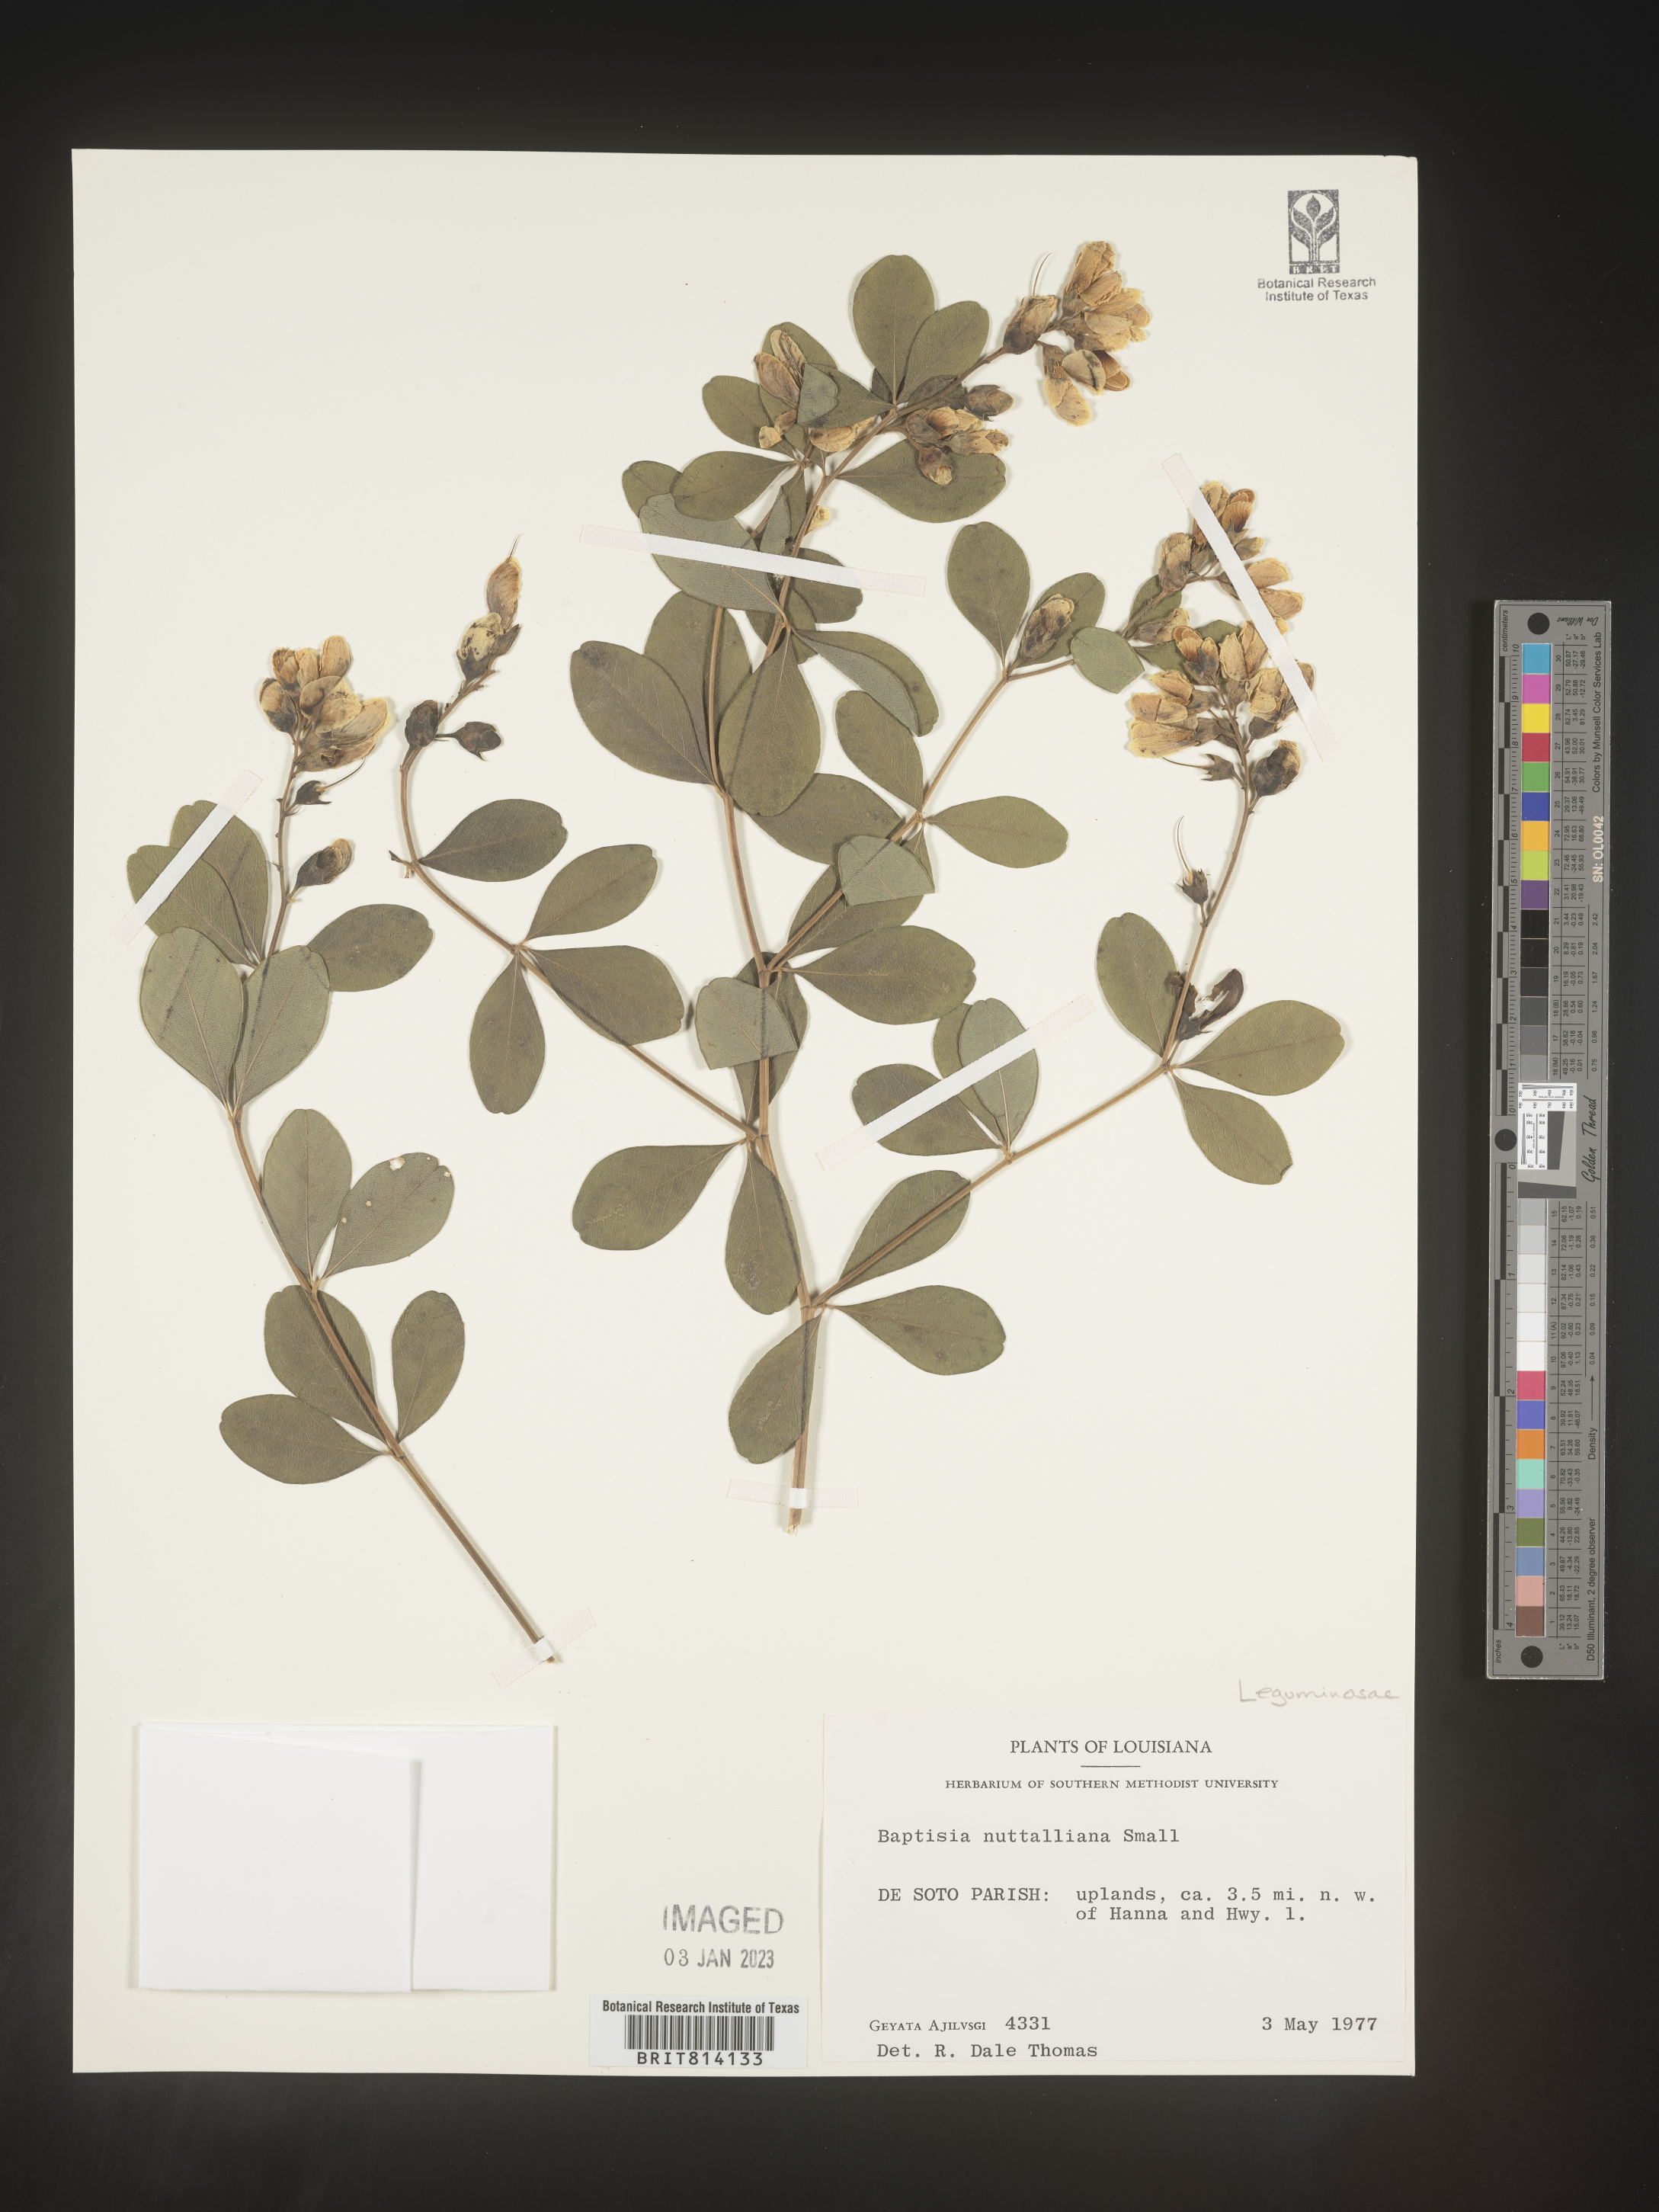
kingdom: Plantae
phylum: Tracheophyta
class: Magnoliopsida
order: Fabales
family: Fabaceae
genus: Baptisia
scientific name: Baptisia
